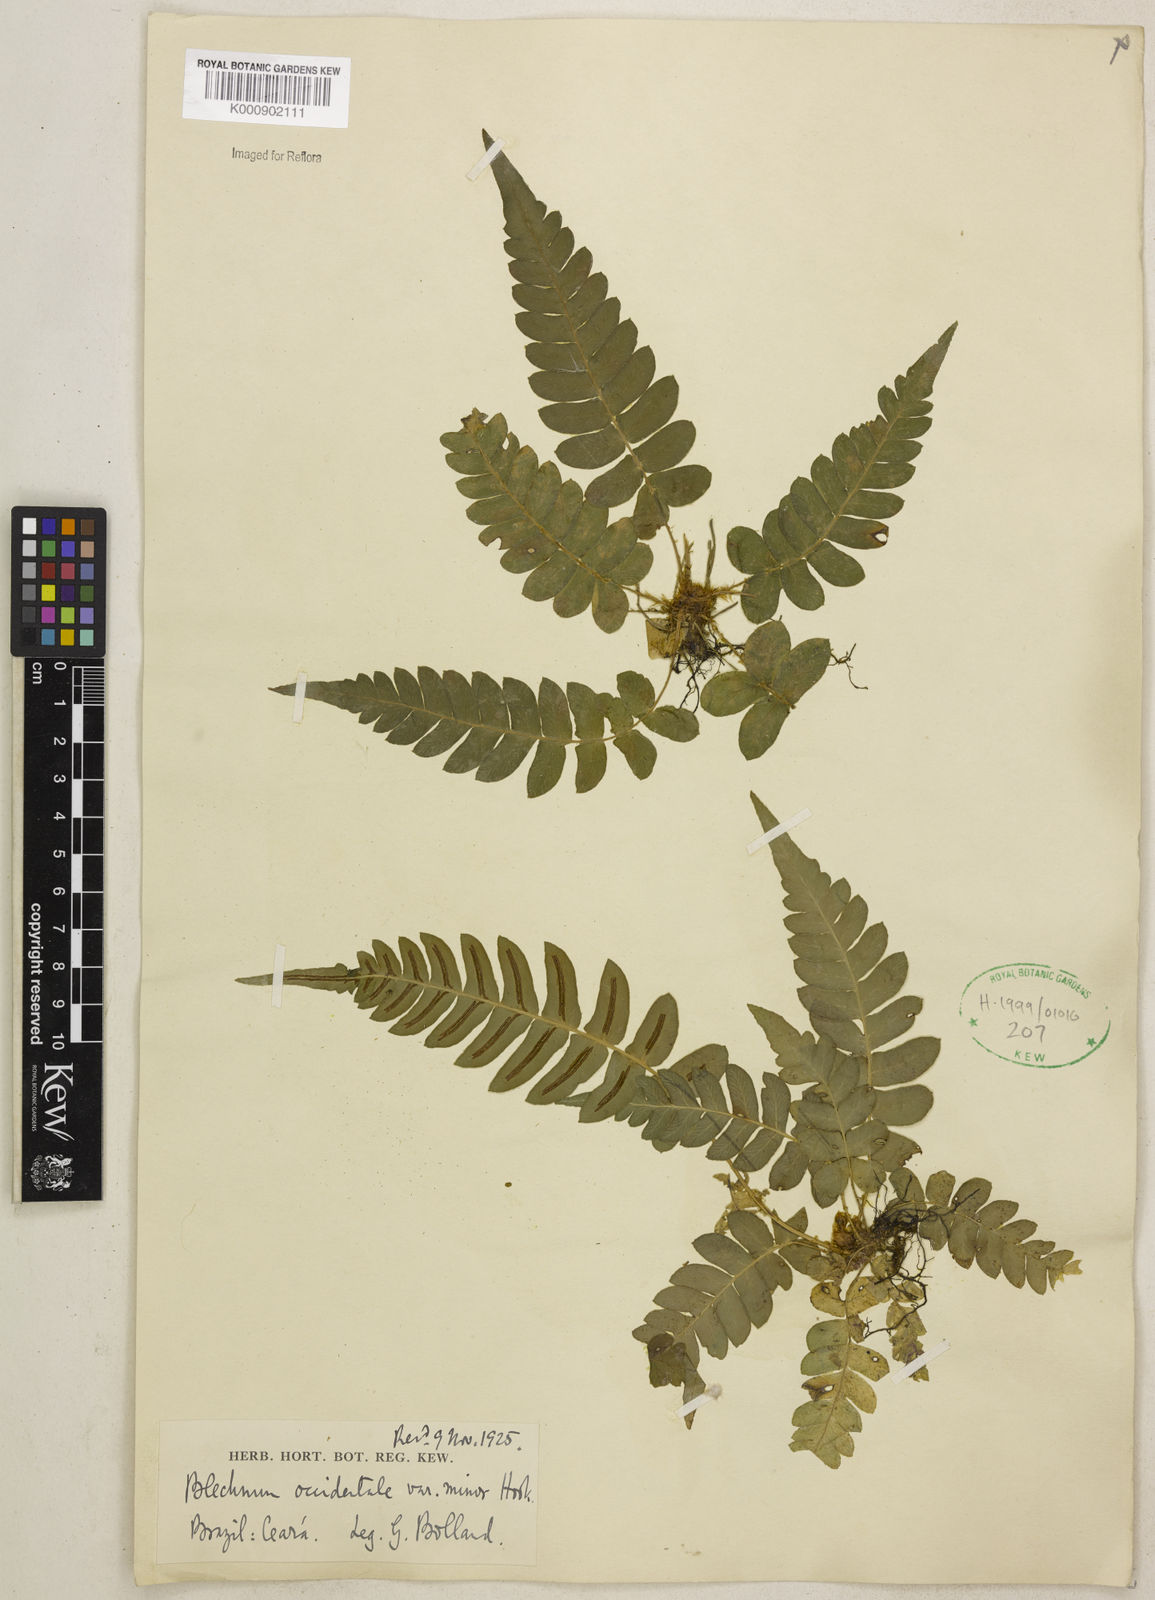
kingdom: Plantae
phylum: Tracheophyta
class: Polypodiopsida
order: Polypodiales
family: Blechnaceae
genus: Blechnum
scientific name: Blechnum occidentale
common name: Hammock fern
